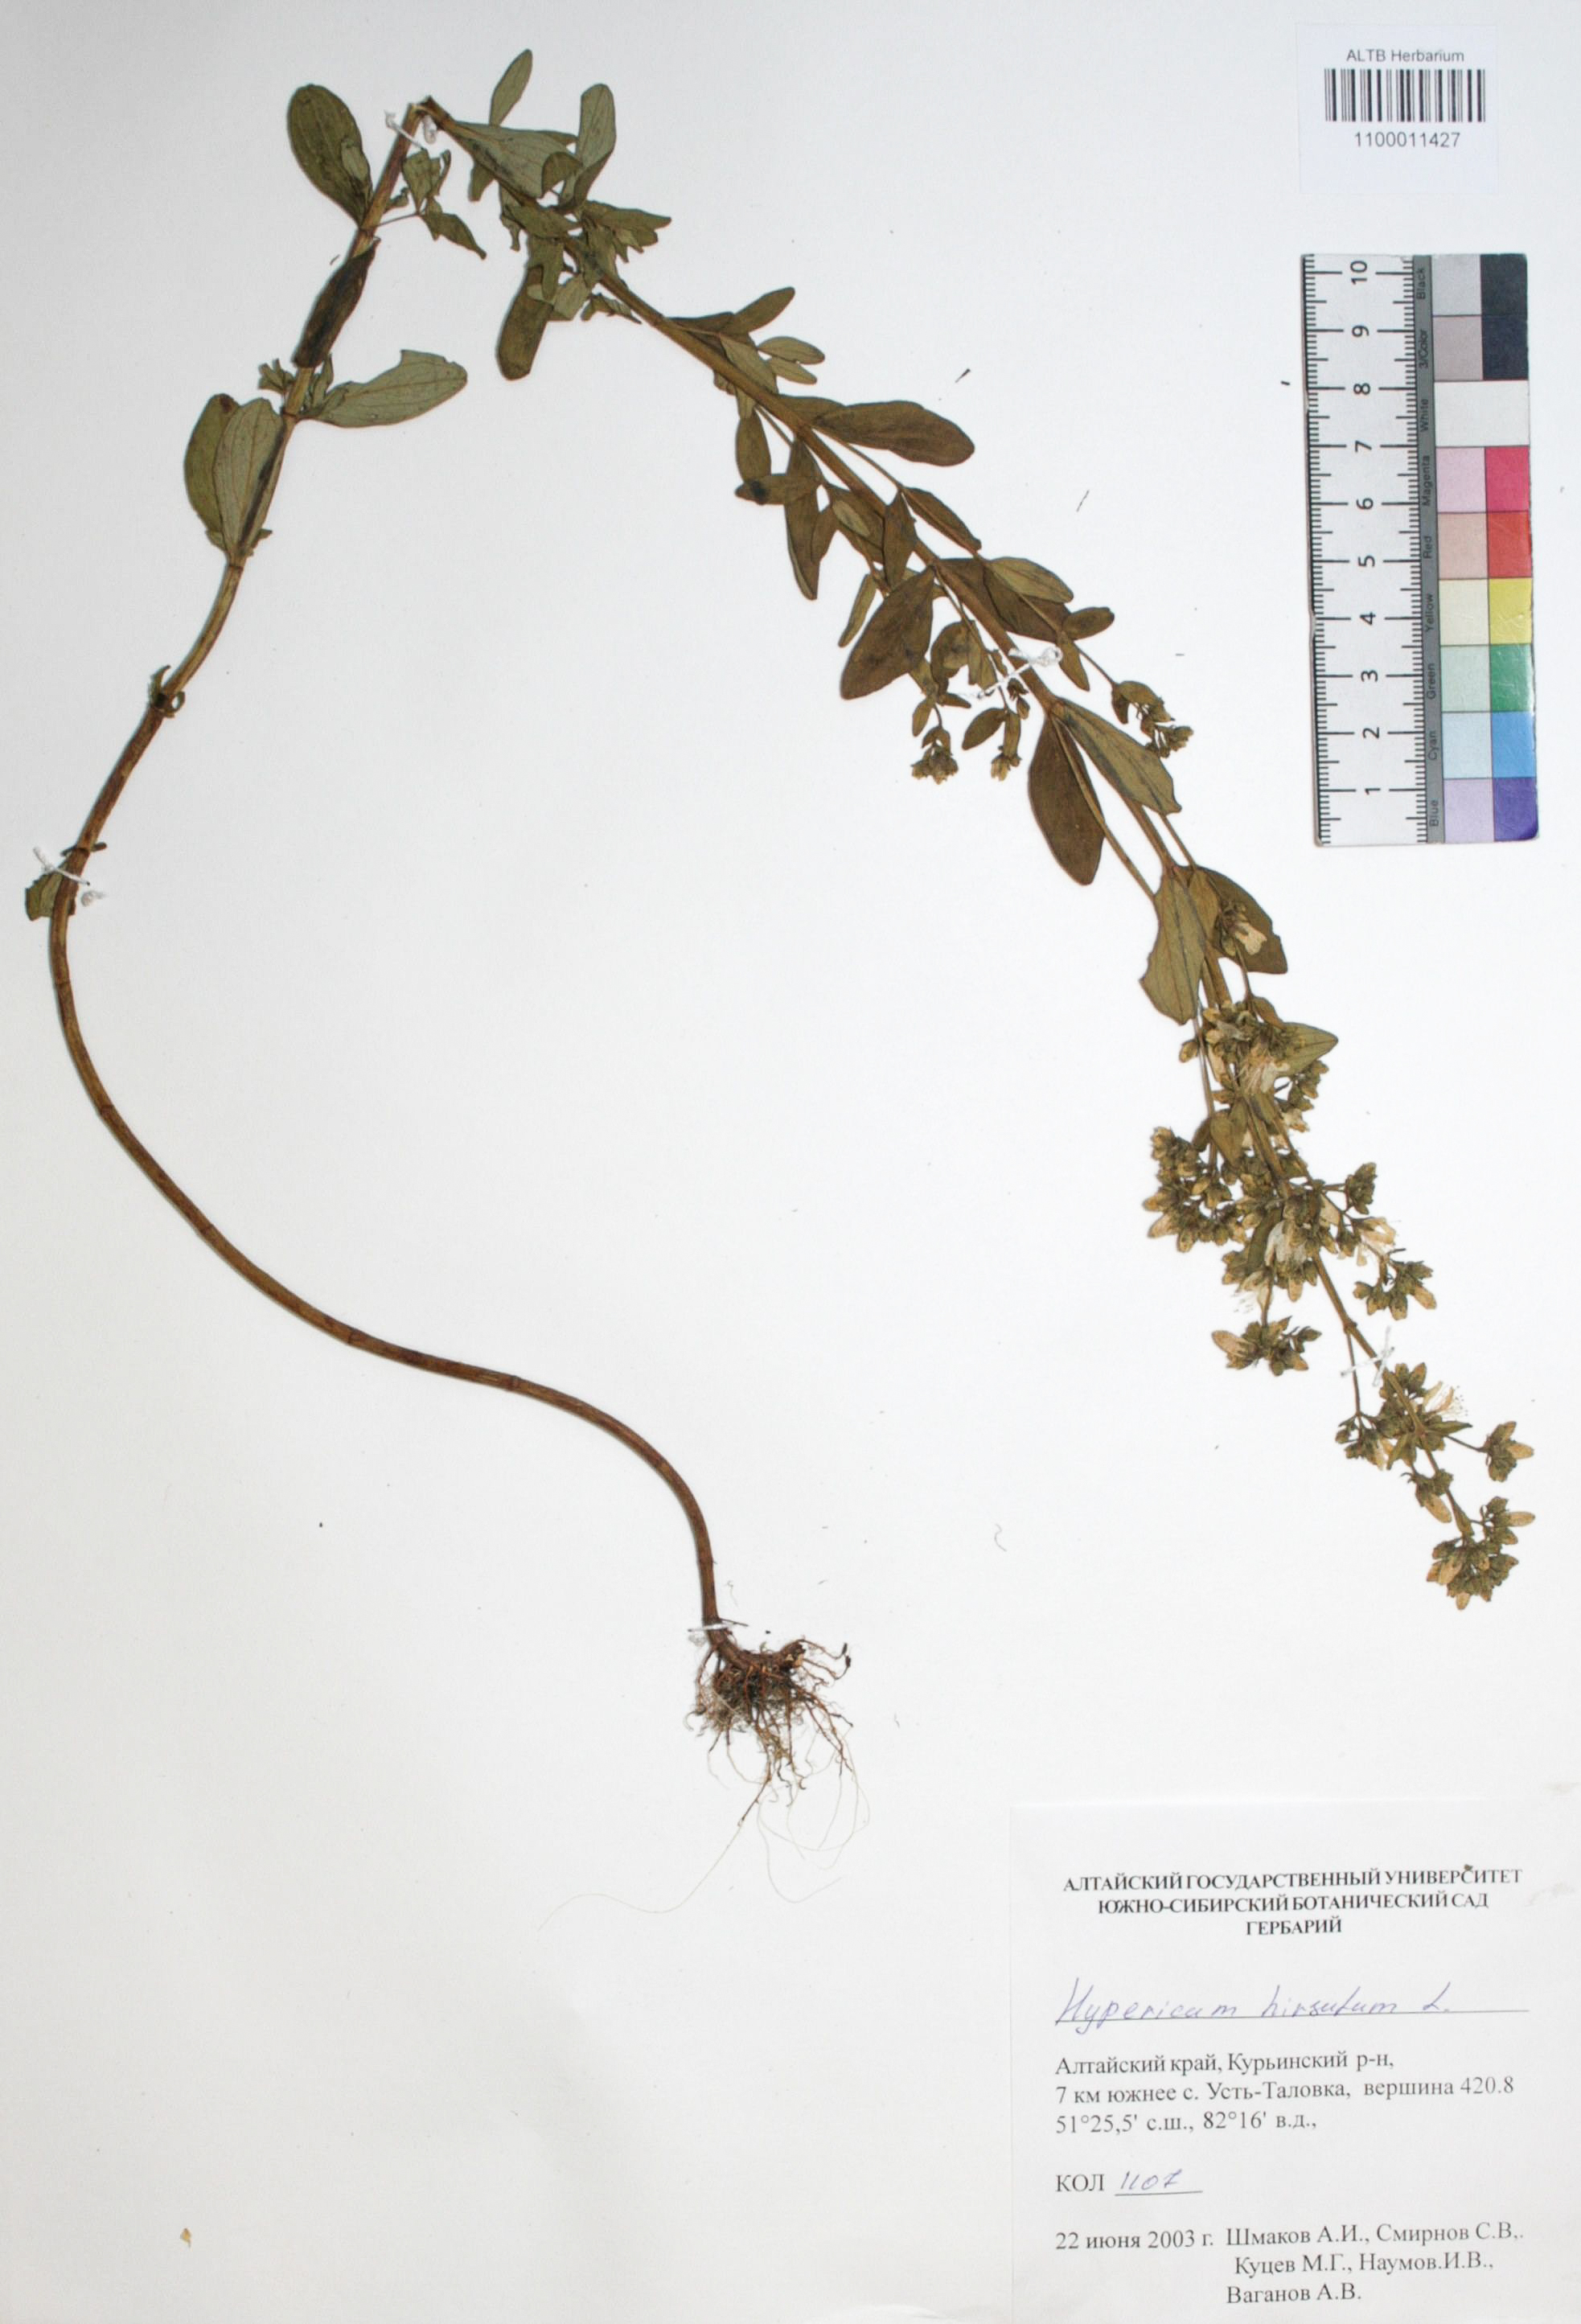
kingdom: Plantae
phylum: Tracheophyta
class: Magnoliopsida
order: Malpighiales
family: Hypericaceae
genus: Hypericum
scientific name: Hypericum hirsutum
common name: Hairy st. john's-wort
